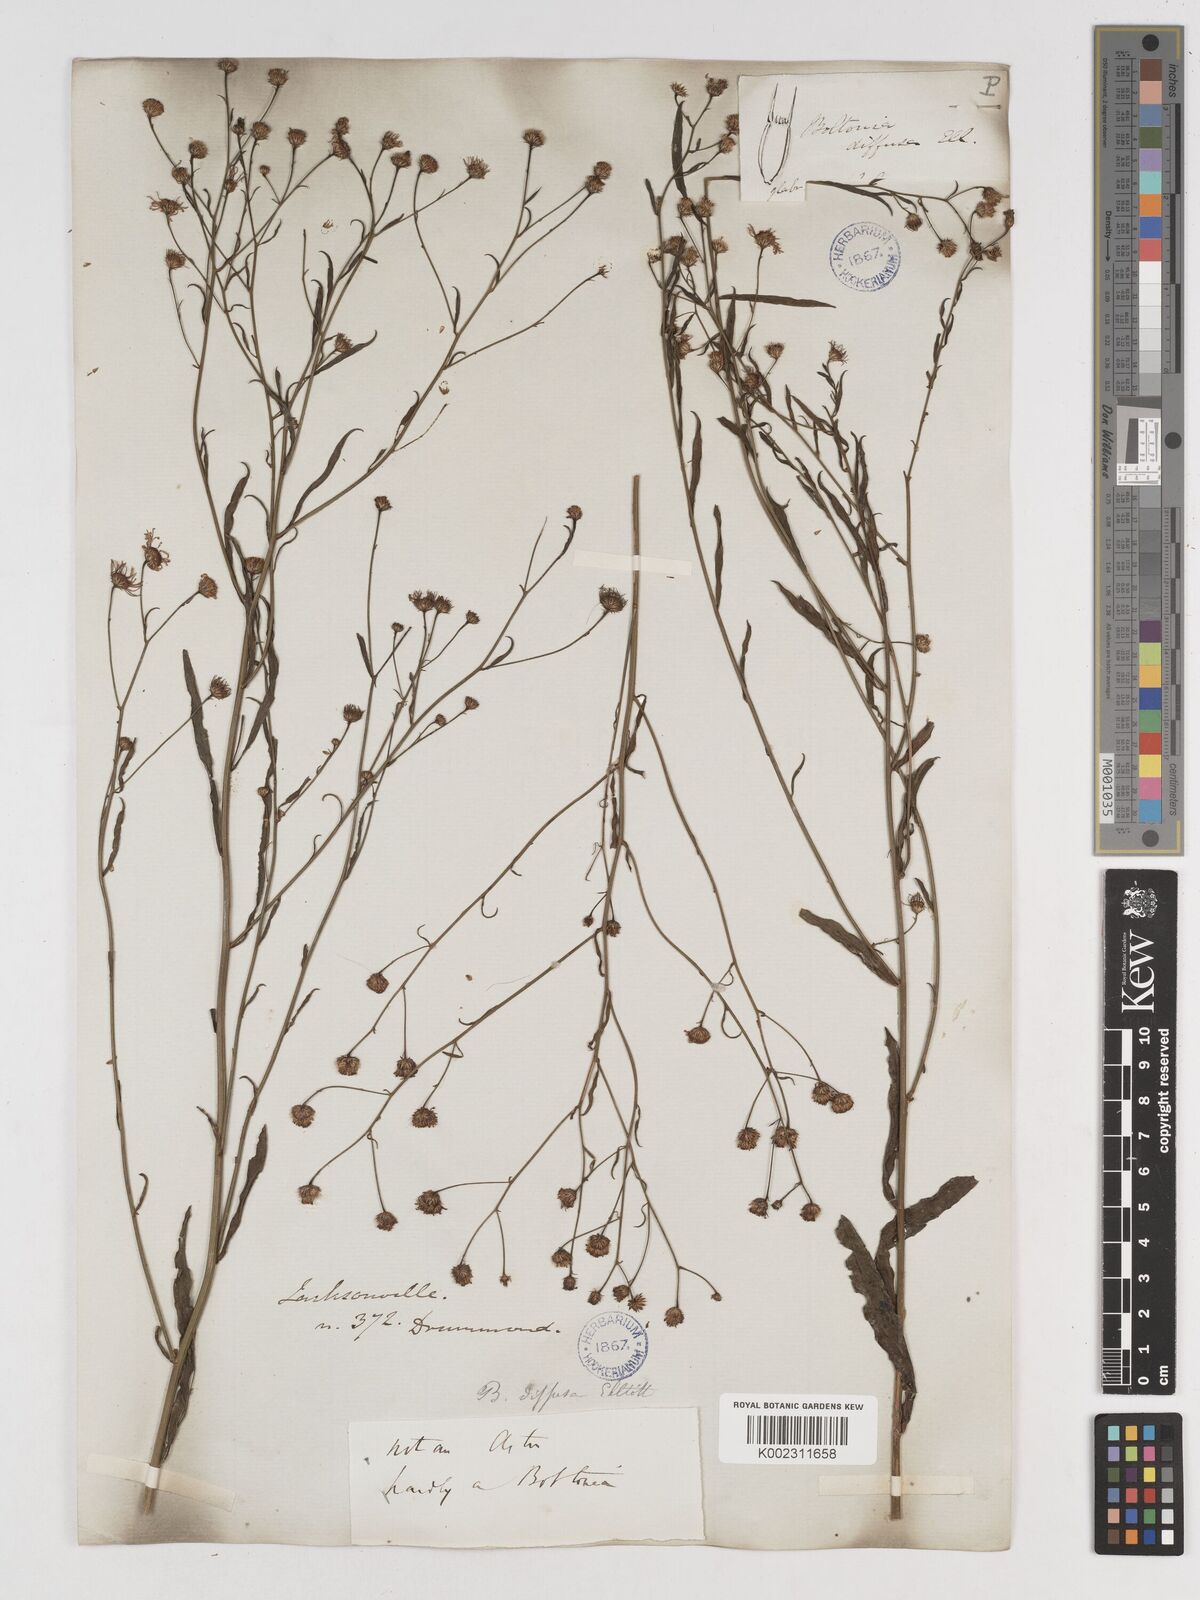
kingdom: Plantae
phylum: Tracheophyta
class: Magnoliopsida
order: Asterales
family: Asteraceae
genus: Boltonia
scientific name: Boltonia diffusa
